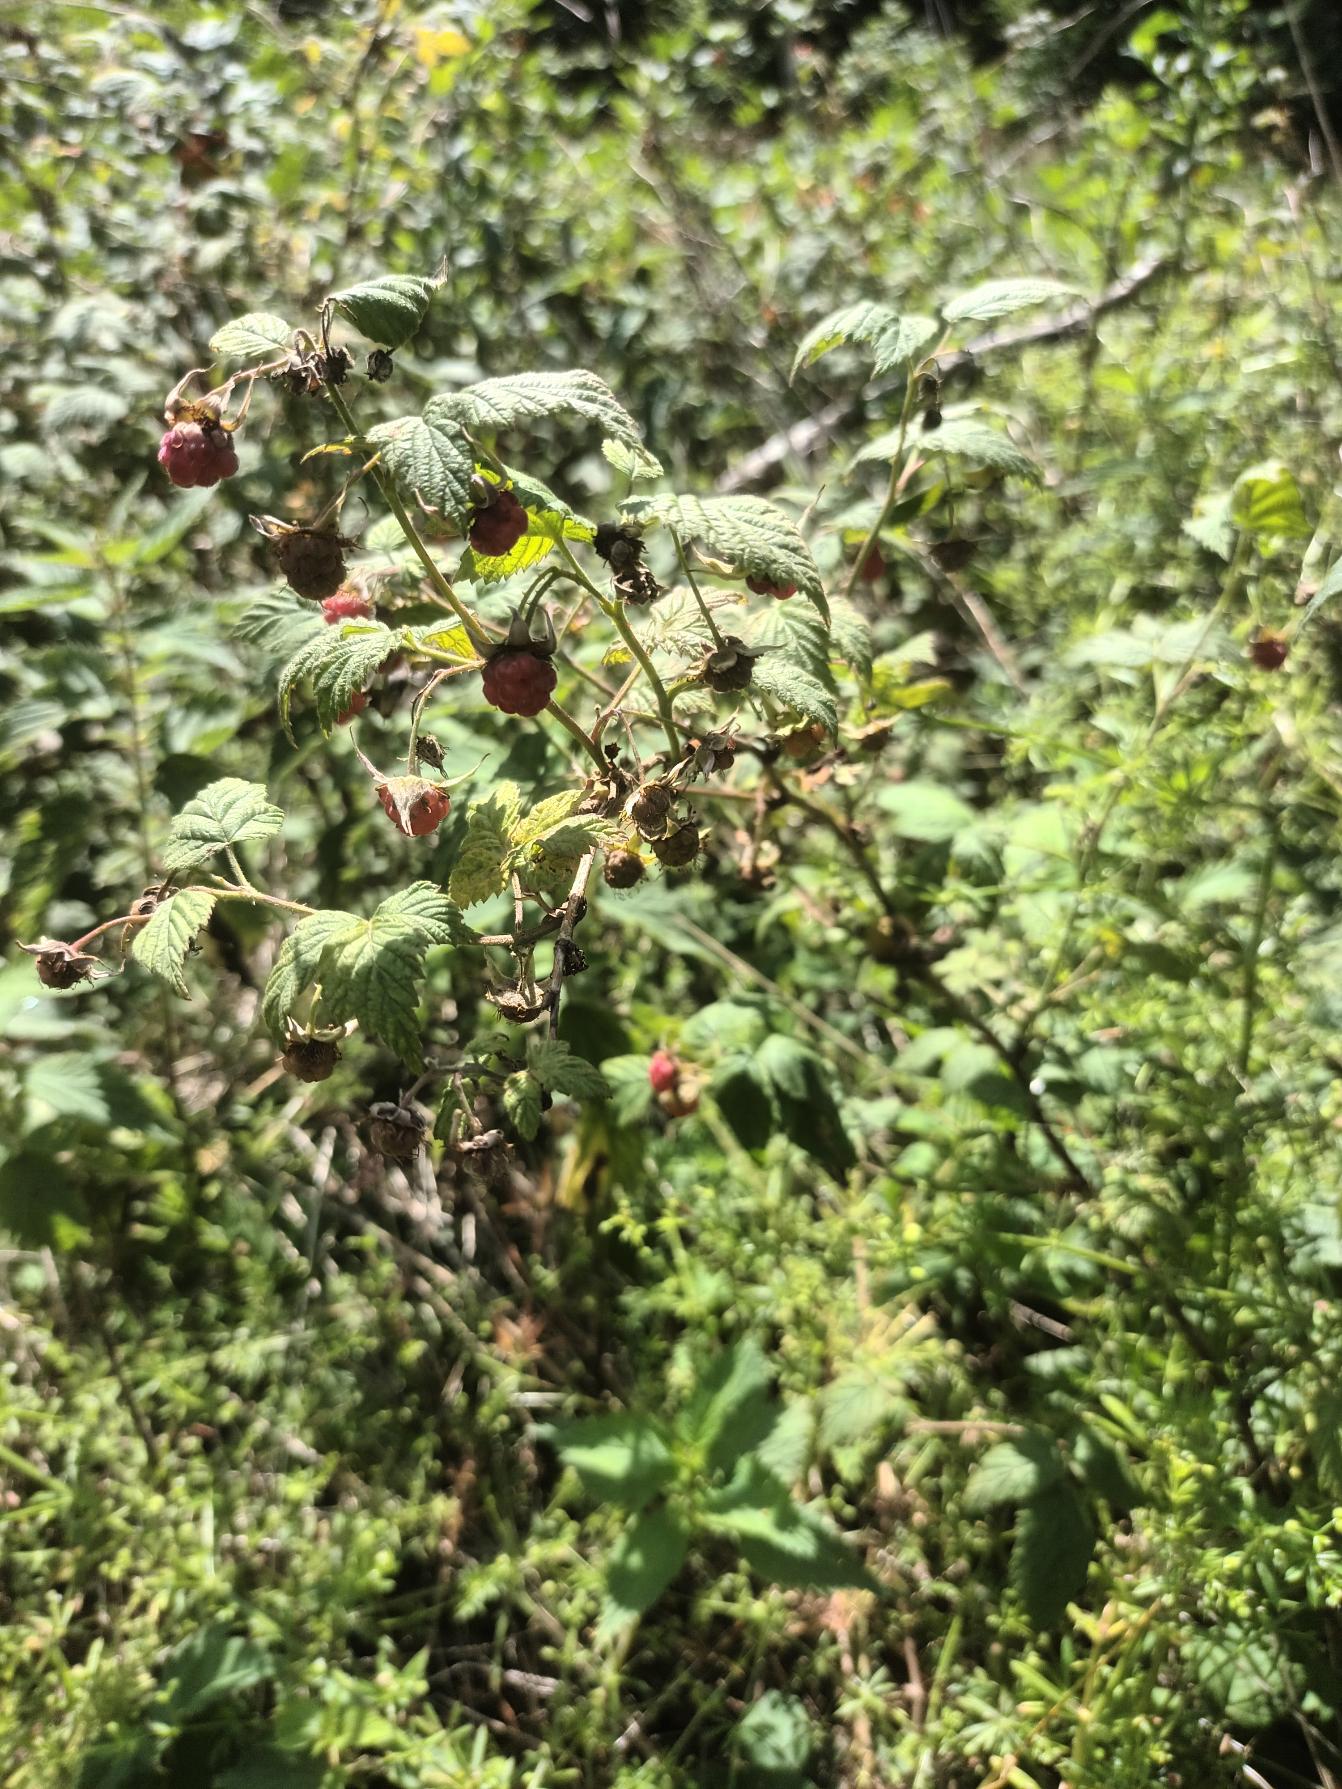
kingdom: Plantae
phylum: Tracheophyta
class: Magnoliopsida
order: Rosales
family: Rosaceae
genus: Rubus
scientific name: Rubus idaeus
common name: Hindbær
